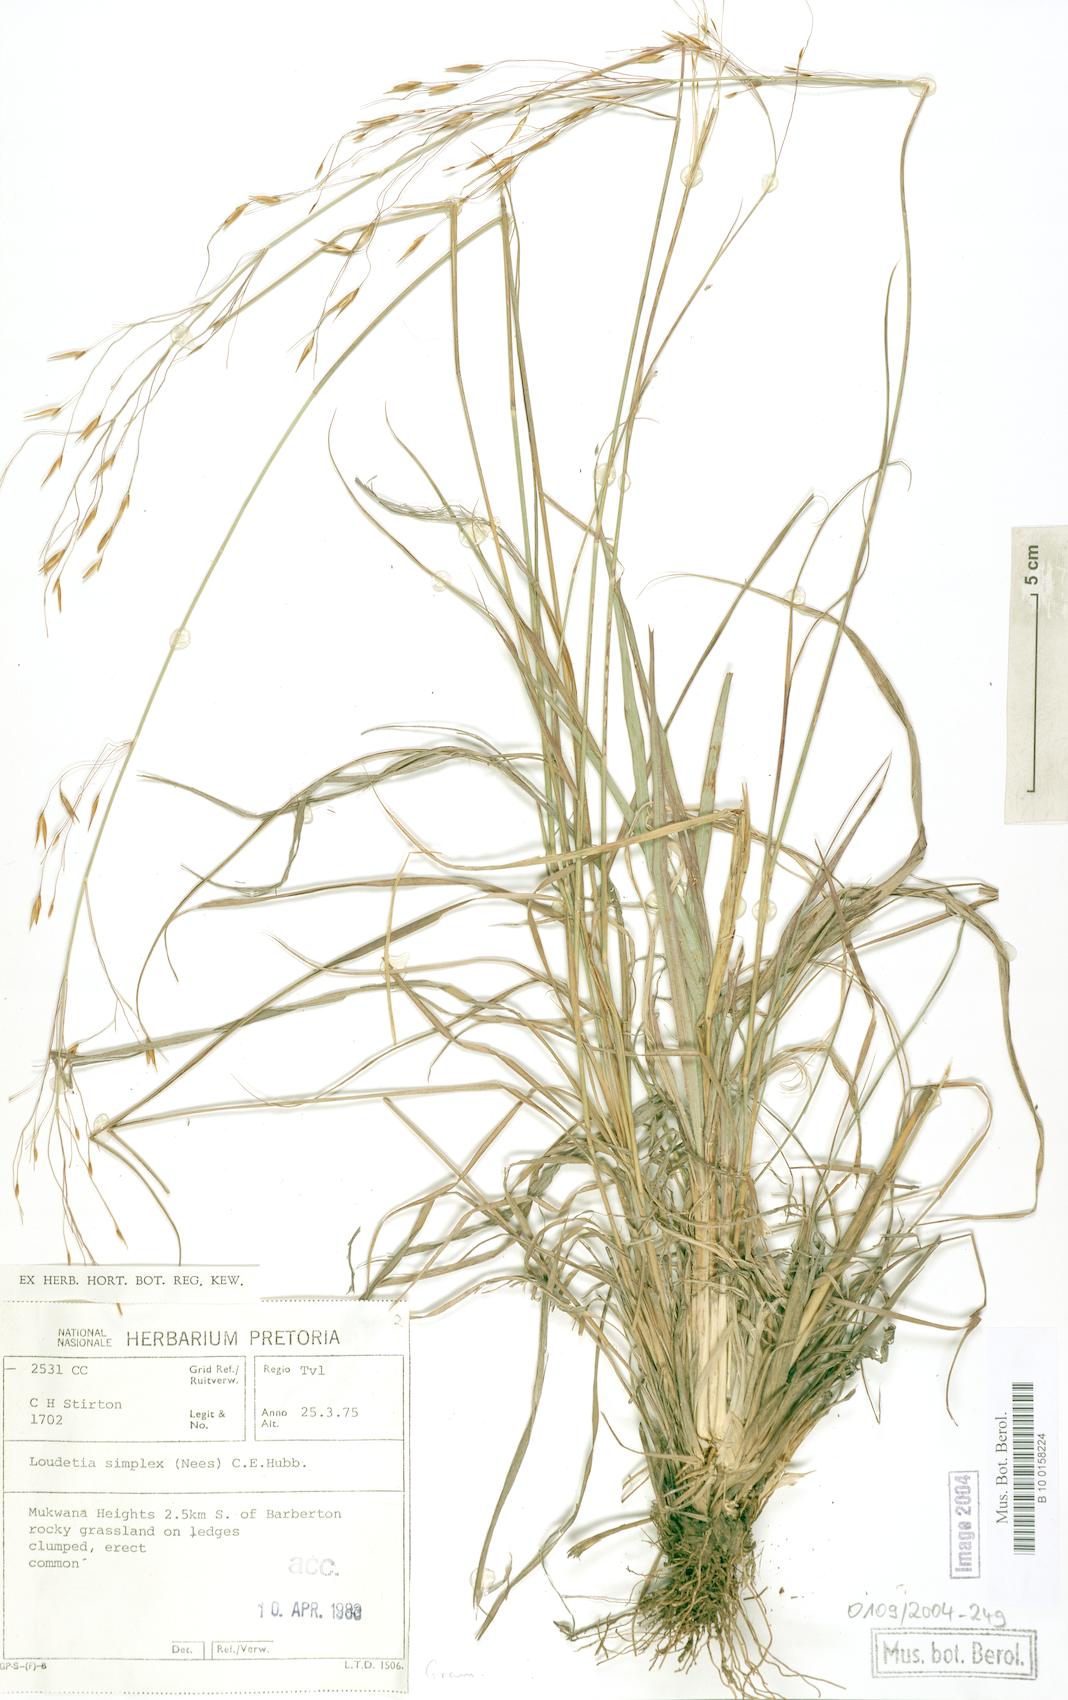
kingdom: Plantae
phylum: Tracheophyta
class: Liliopsida
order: Poales
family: Poaceae
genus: Loudetia
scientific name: Loudetia simplex
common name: Common russet grass
